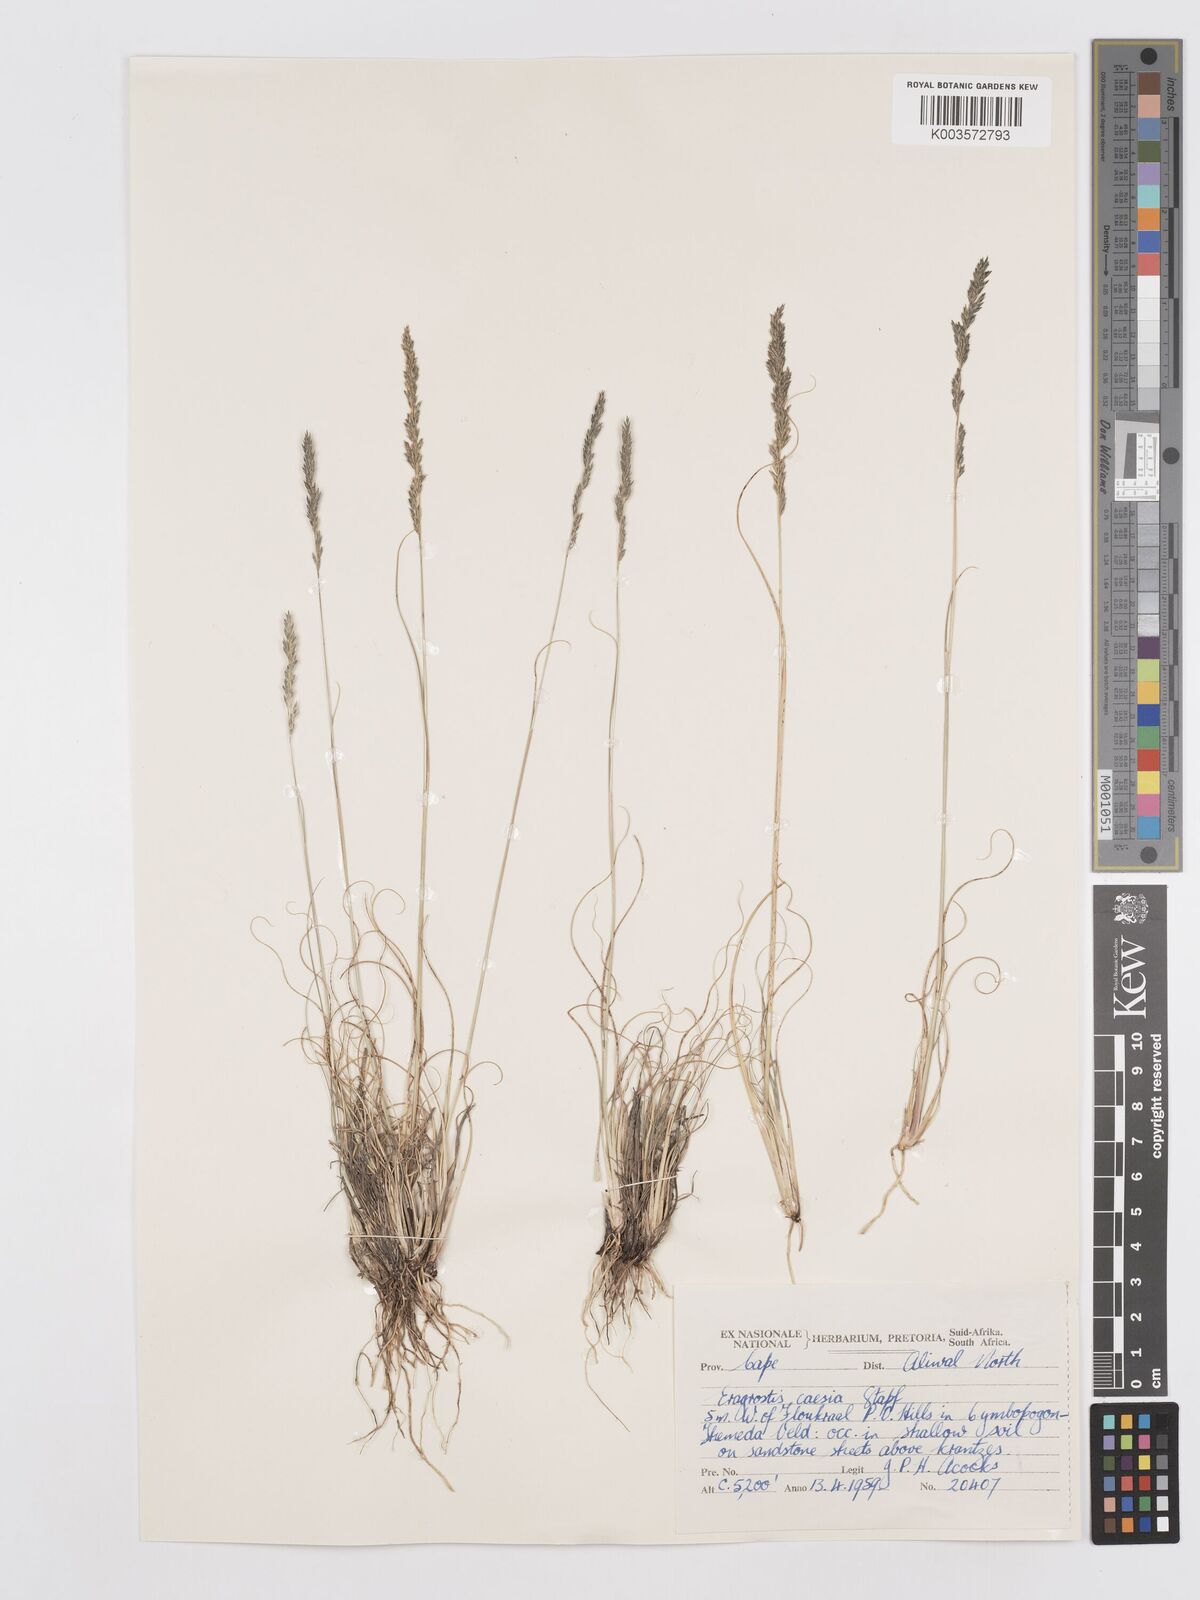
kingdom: Plantae
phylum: Tracheophyta
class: Liliopsida
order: Poales
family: Poaceae
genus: Eragrostis
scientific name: Eragrostis caesia
